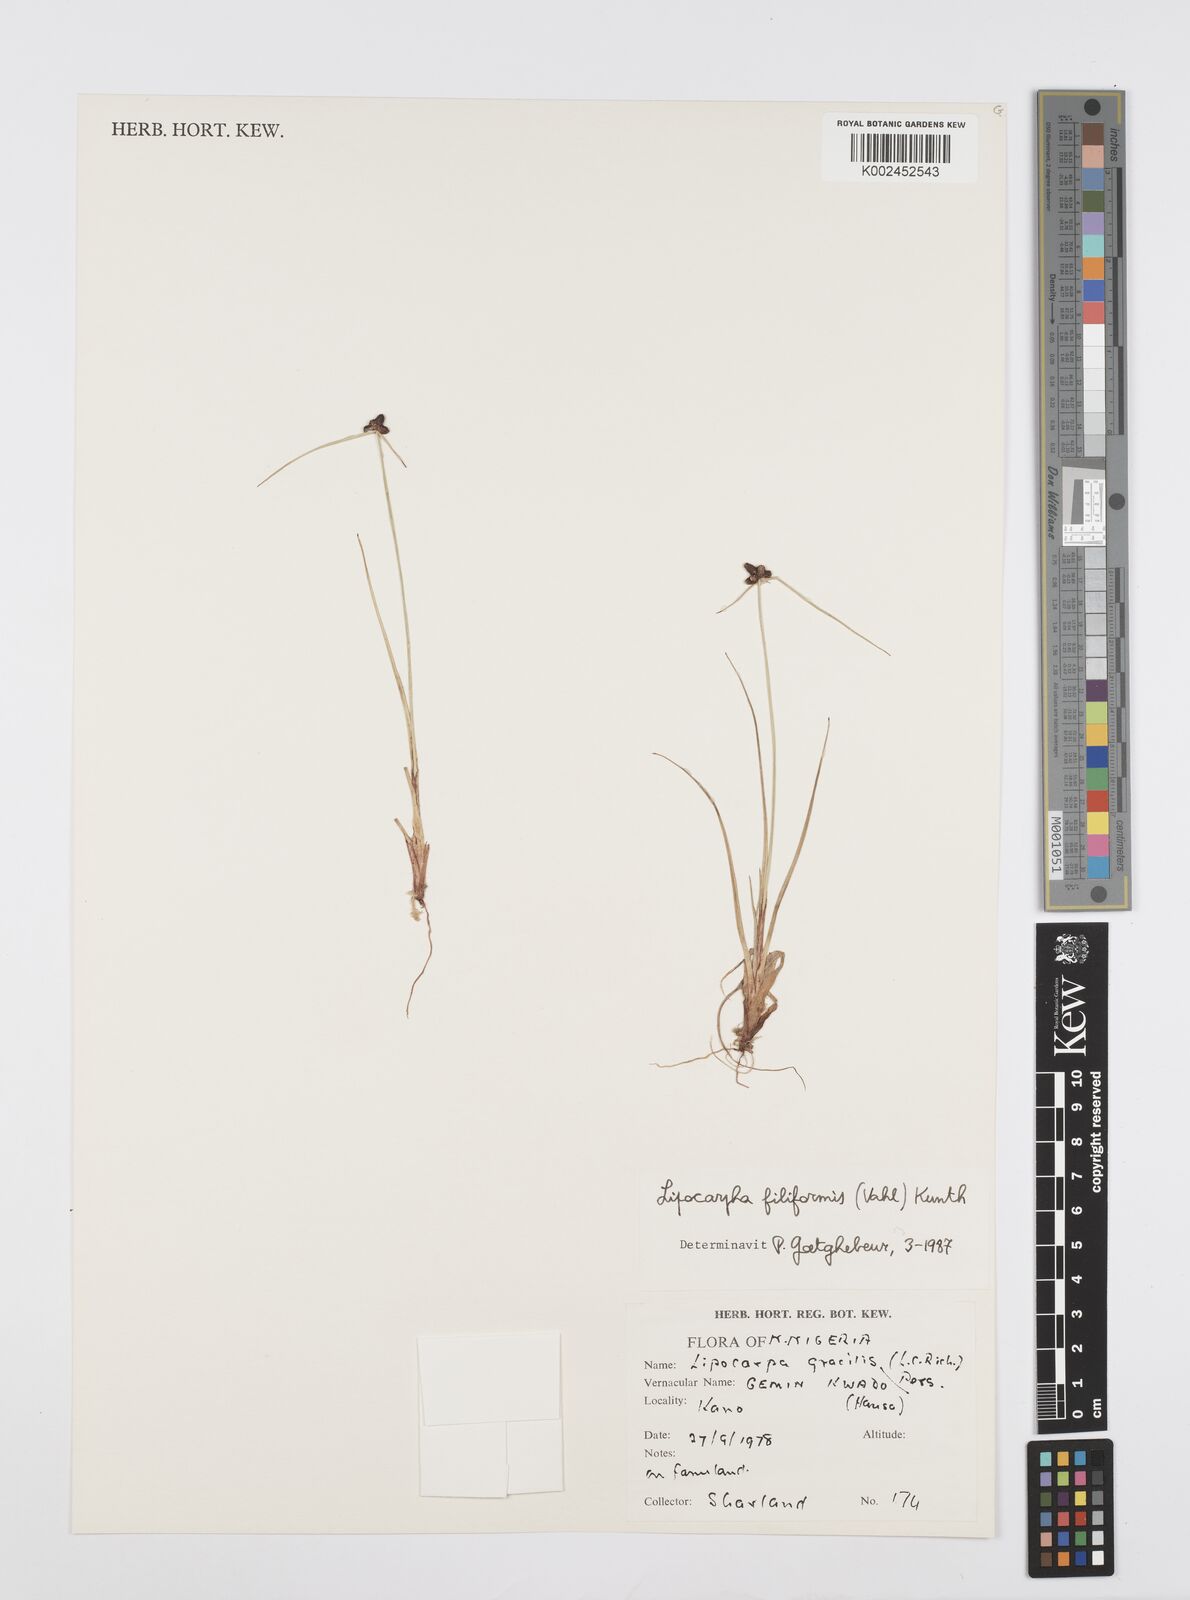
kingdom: Plantae
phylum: Tracheophyta
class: Liliopsida
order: Poales
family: Cyperaceae
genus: Cyperus
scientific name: Cyperus filiformis
